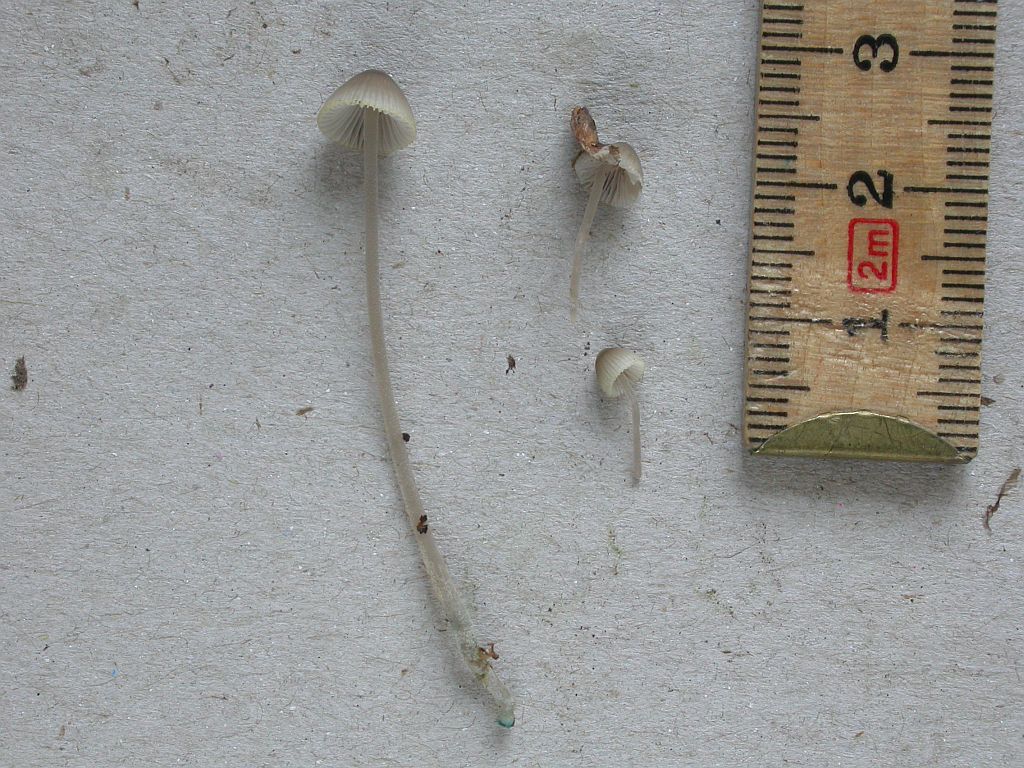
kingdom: Fungi
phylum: Basidiomycota
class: Agaricomycetes
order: Agaricales
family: Mycenaceae
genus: Mycena
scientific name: Mycena amicta
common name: iris-huesvamp
